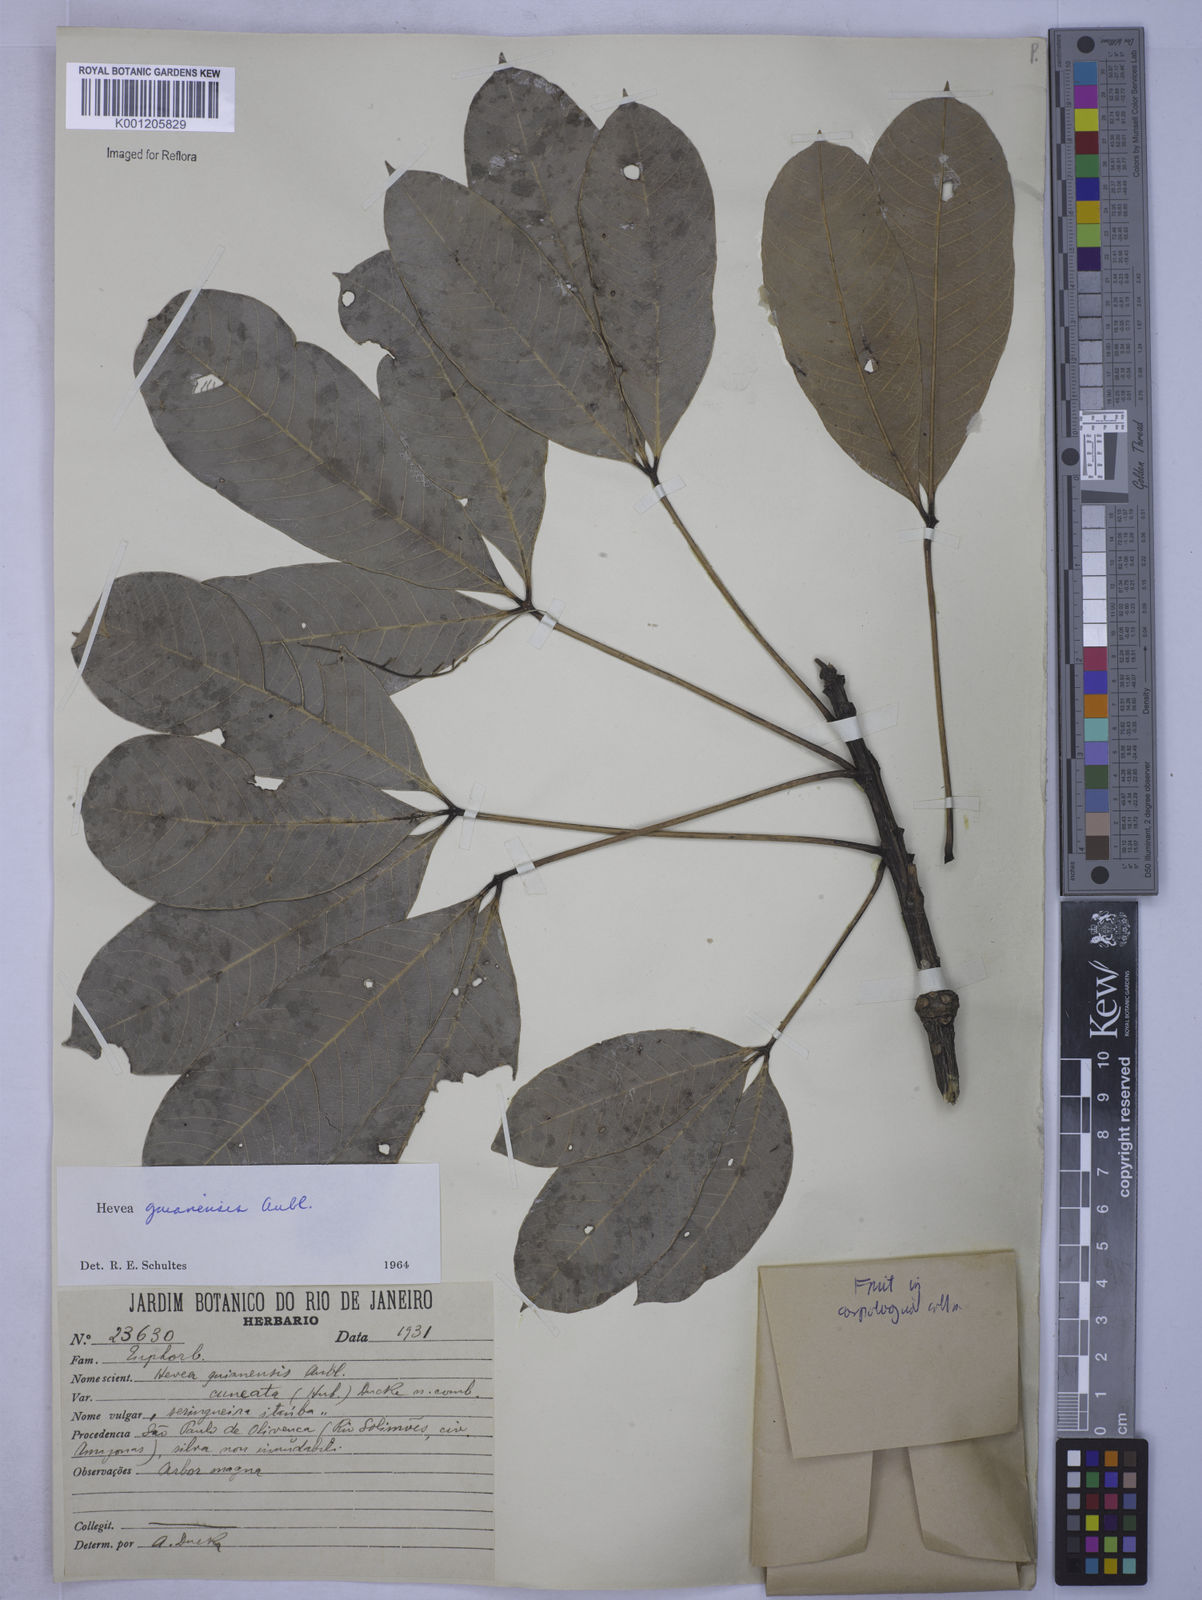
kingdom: Plantae
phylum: Tracheophyta
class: Magnoliopsida
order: Malpighiales
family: Euphorbiaceae
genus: Hevea
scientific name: Hevea guianensis
